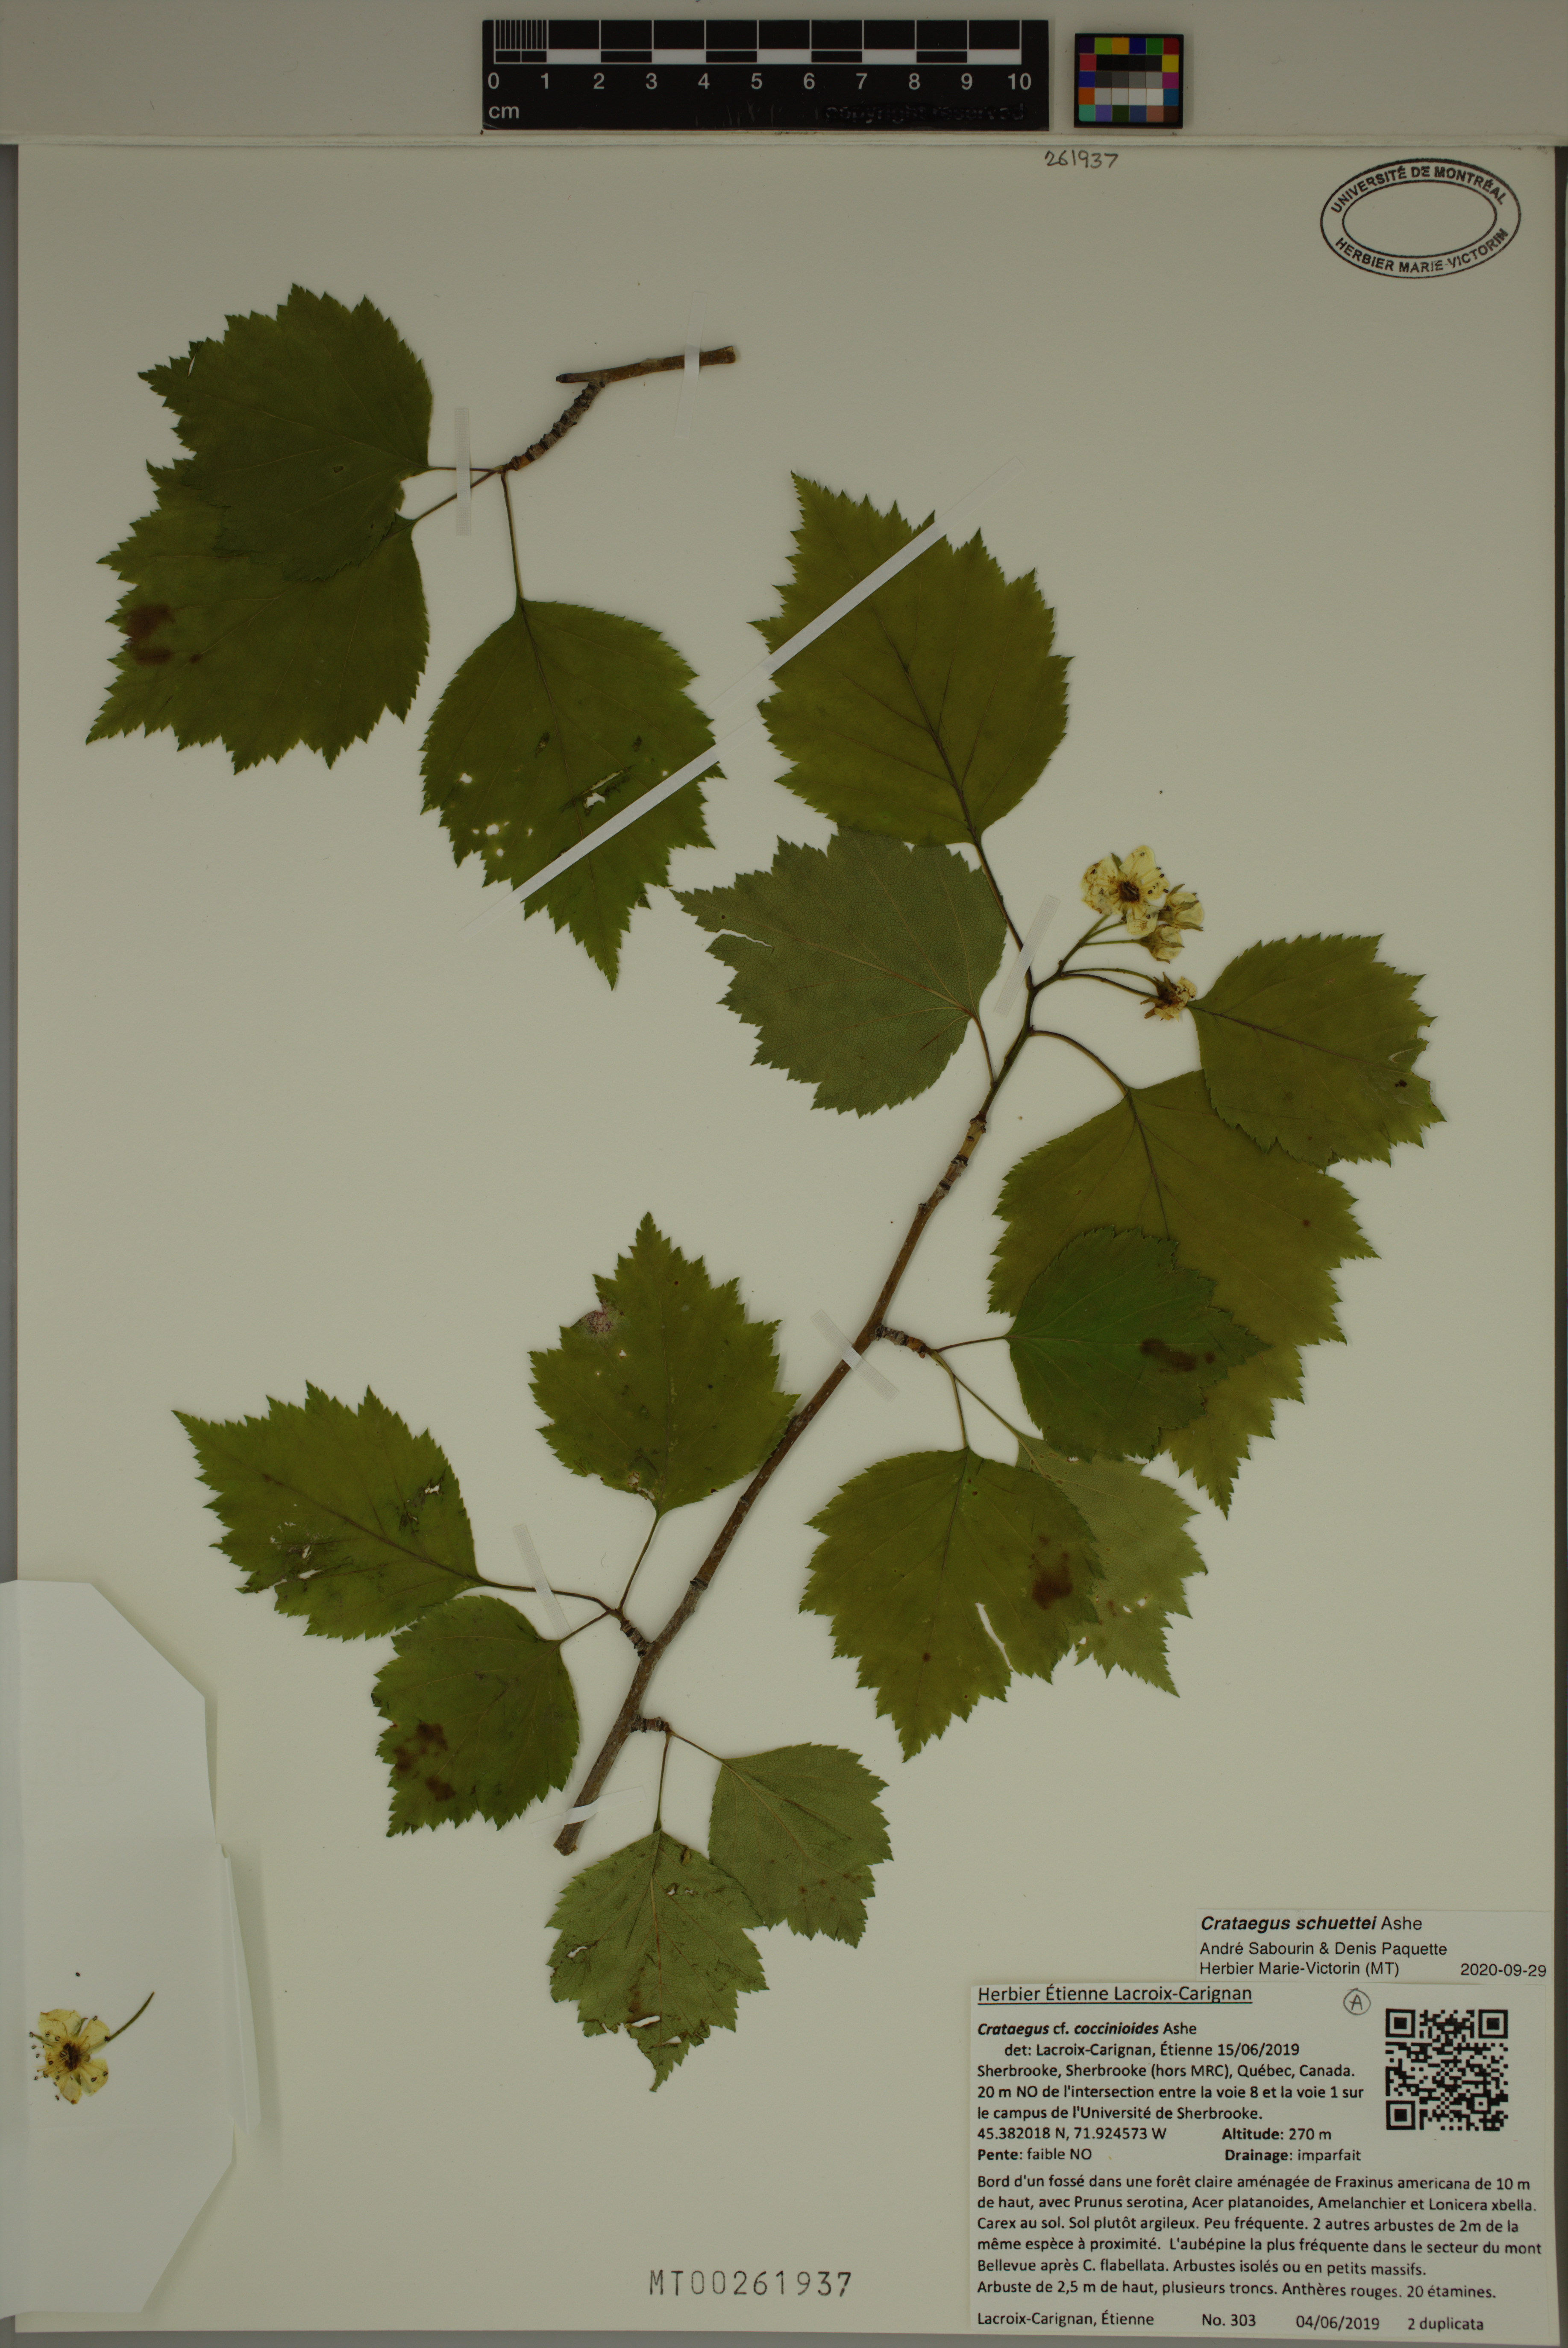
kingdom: Plantae
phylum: Tracheophyta
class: Magnoliopsida
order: Rosales
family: Rosaceae
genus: Crataegus
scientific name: Crataegus schuettei
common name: Schuette's hawthorn
